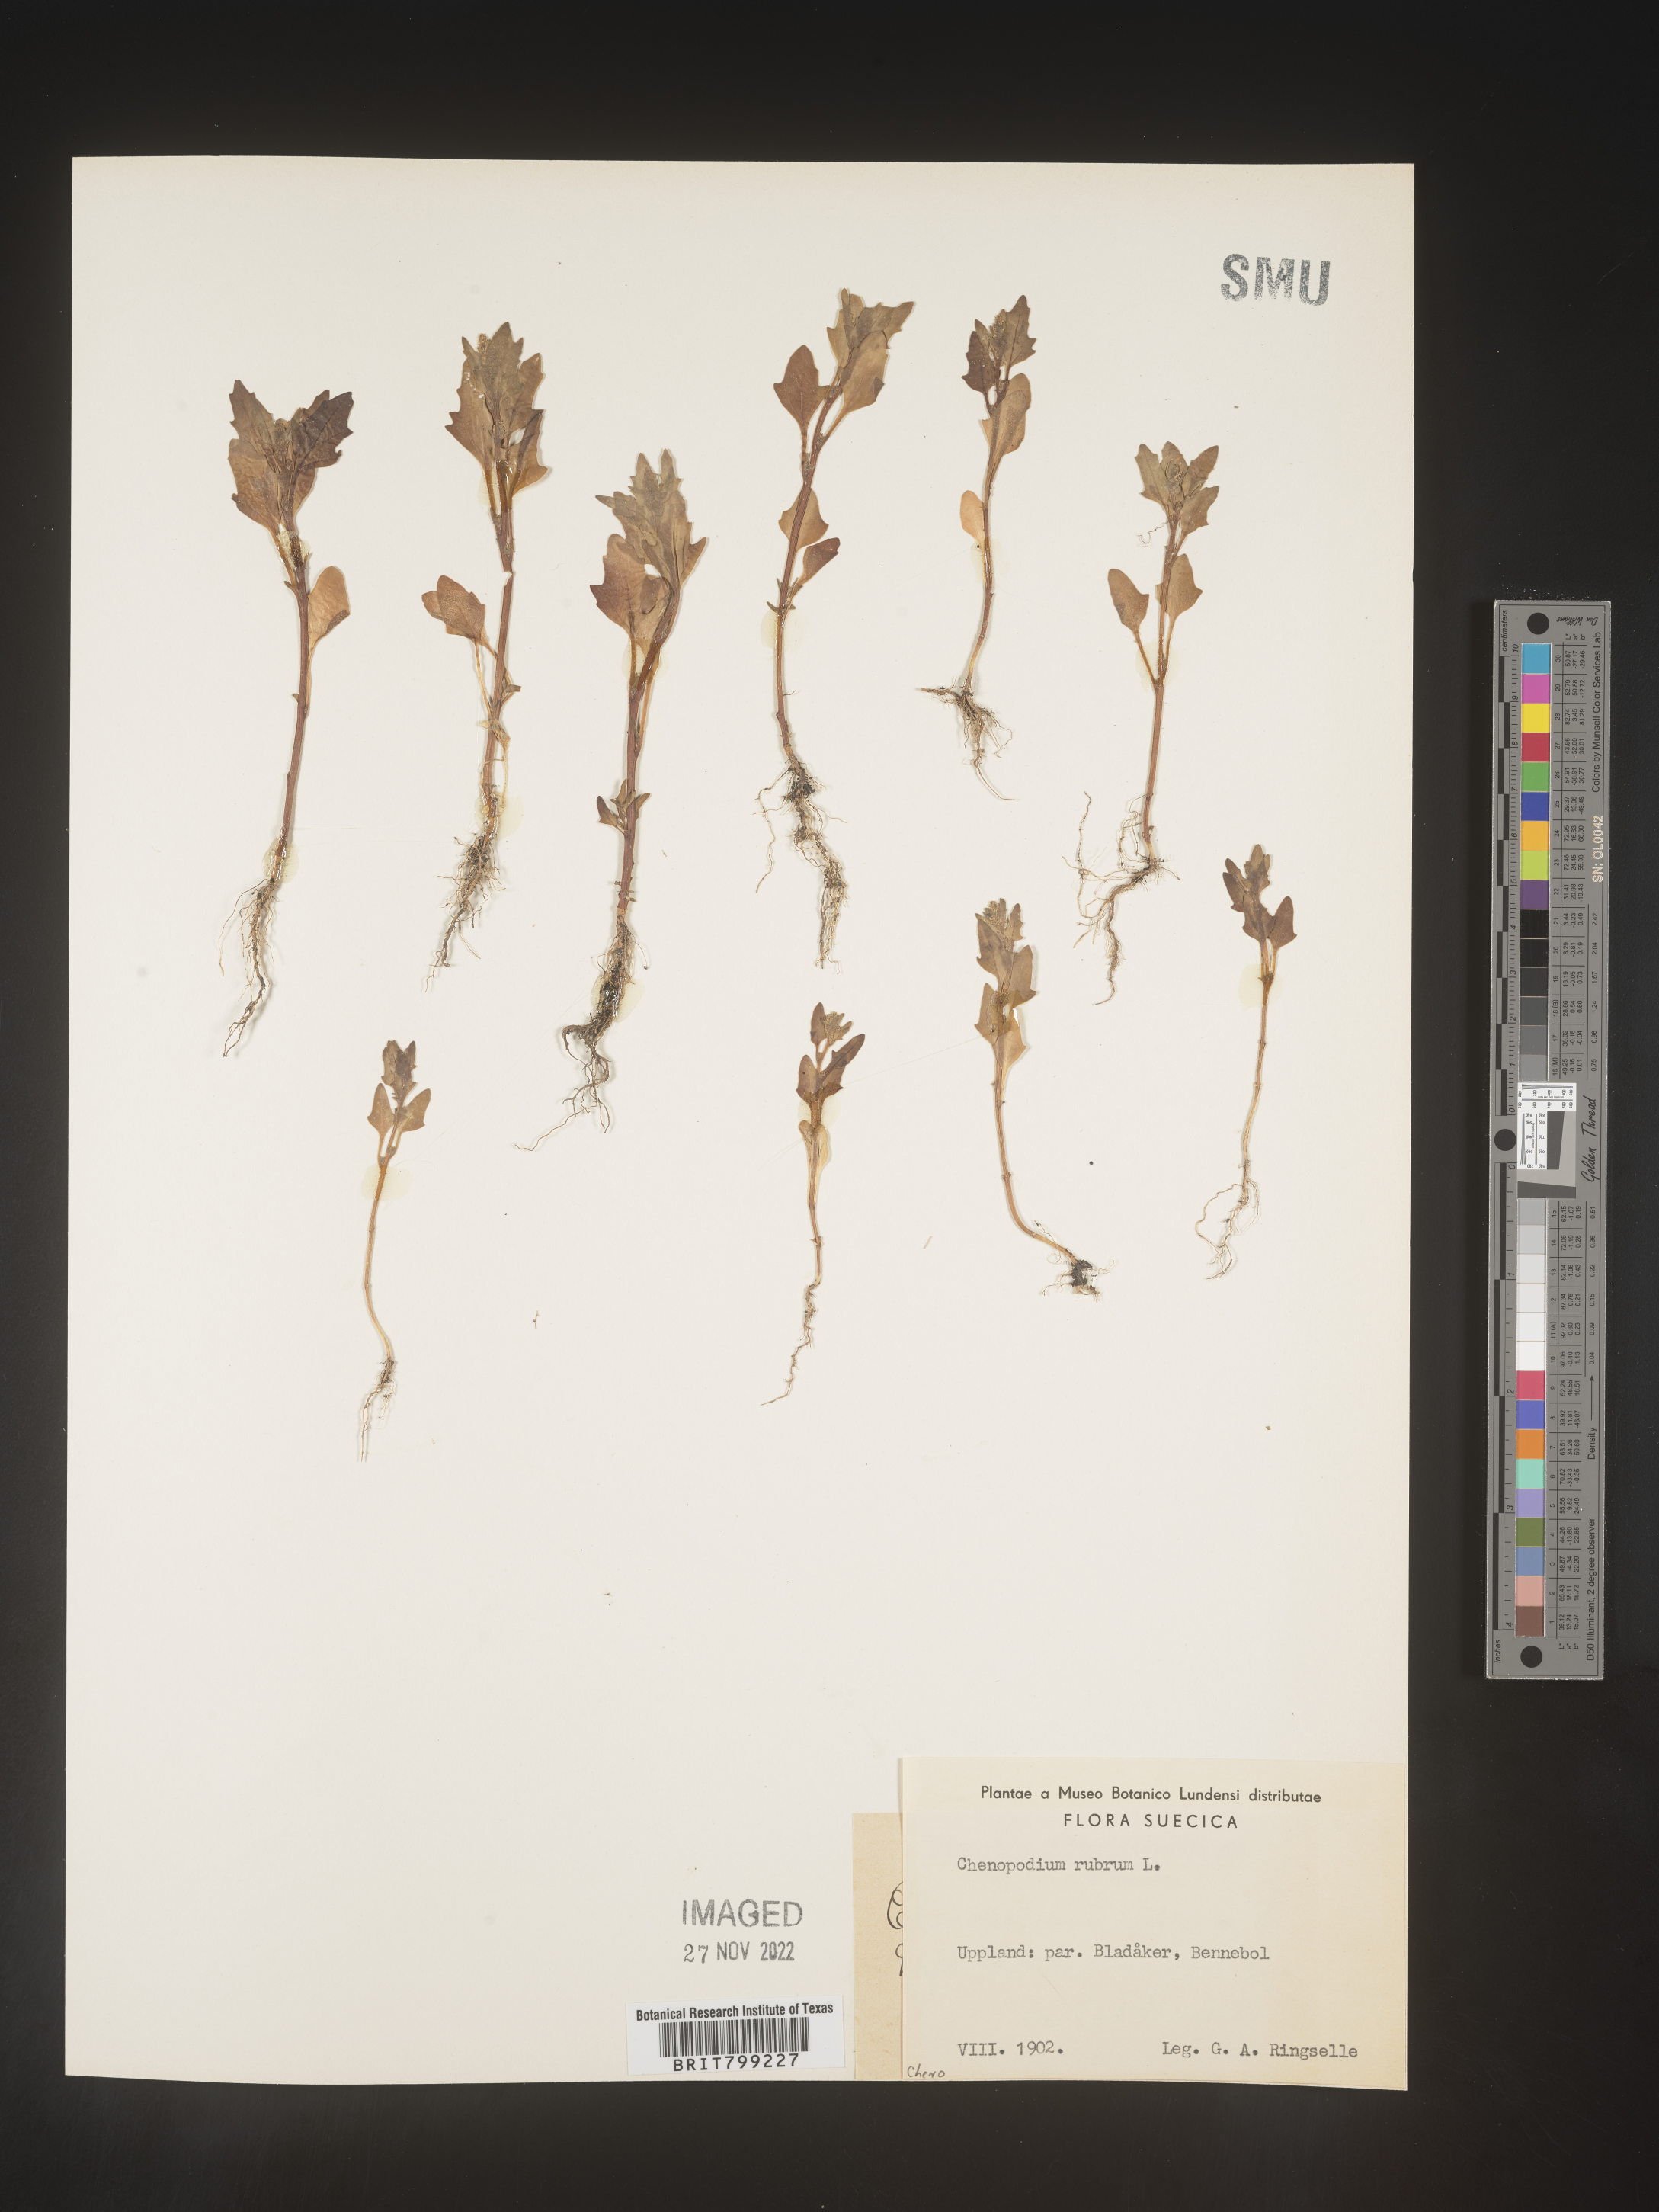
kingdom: Plantae
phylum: Tracheophyta
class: Magnoliopsida
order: Caryophyllales
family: Amaranthaceae
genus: Oxybasis
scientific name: Oxybasis rubra
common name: Red goosefoot
